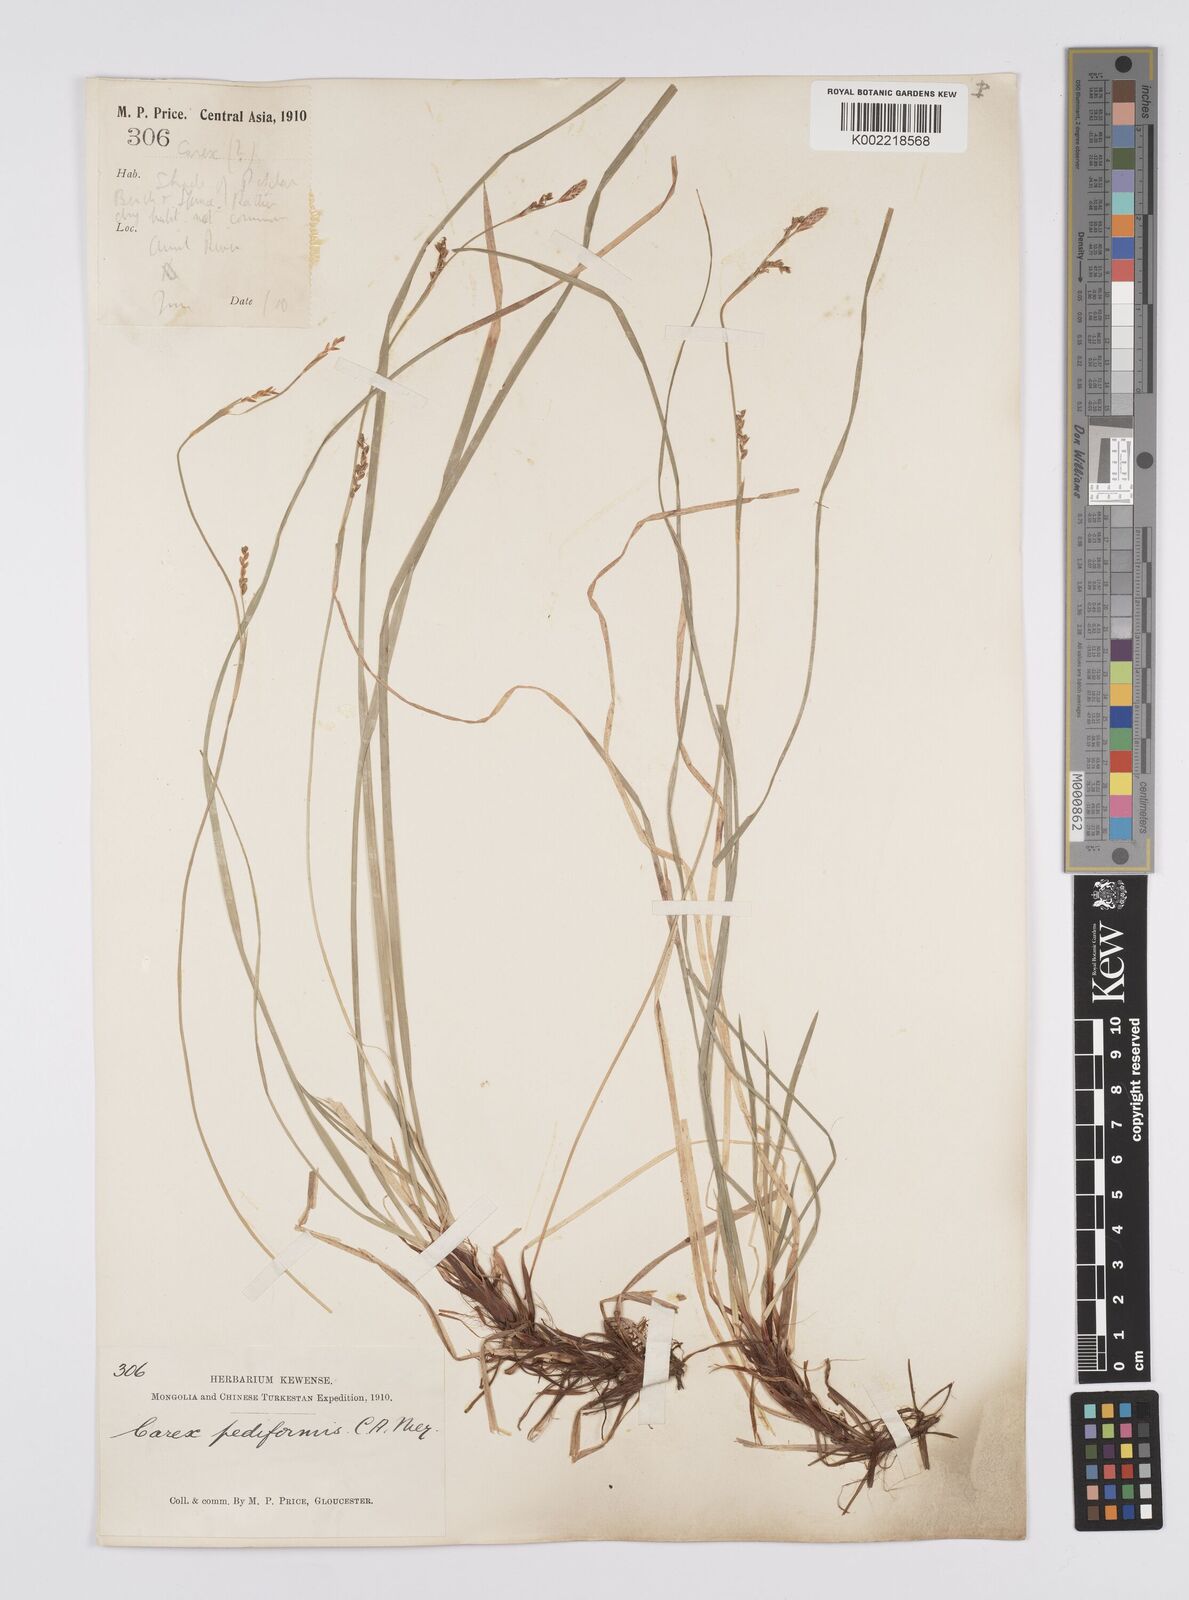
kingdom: Plantae
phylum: Tracheophyta
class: Liliopsida
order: Poales
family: Cyperaceae
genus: Carex
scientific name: Carex pediformis
